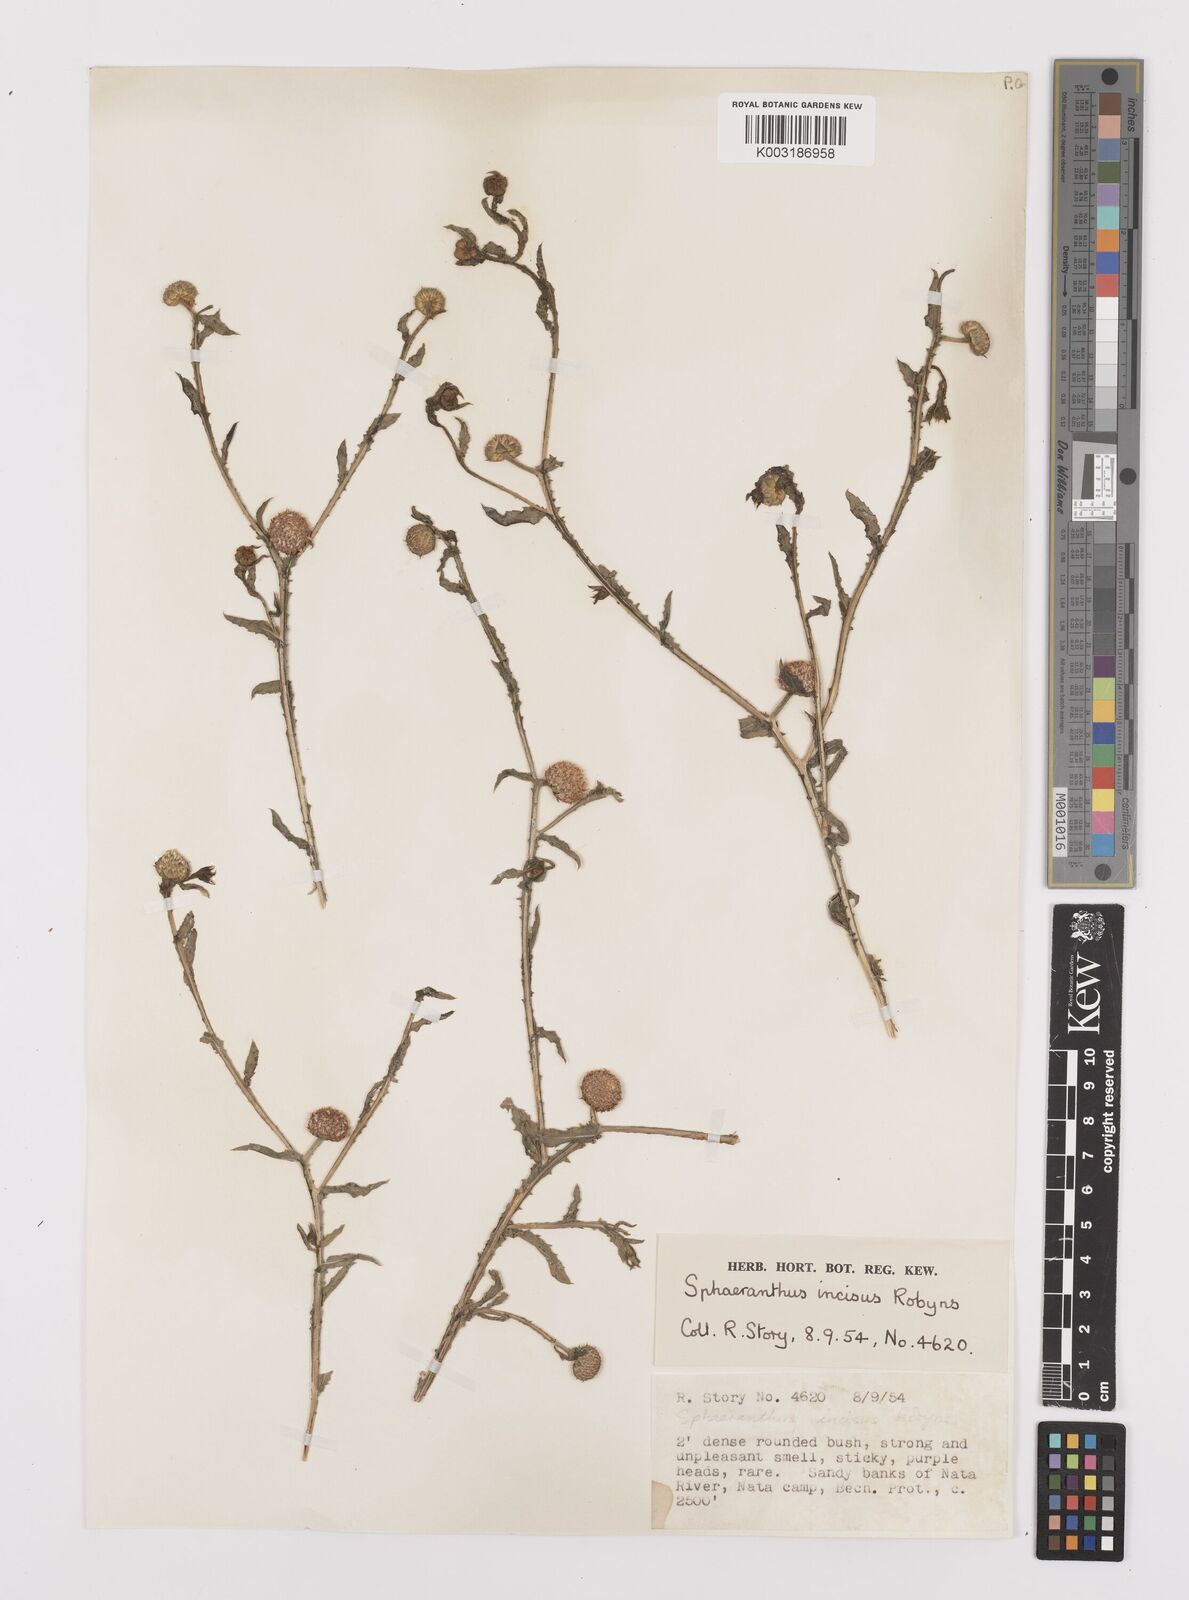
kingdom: Plantae
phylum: Tracheophyta
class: Magnoliopsida
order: Asterales
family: Asteraceae
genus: Sphaeranthus
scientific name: Sphaeranthus peduncularis
